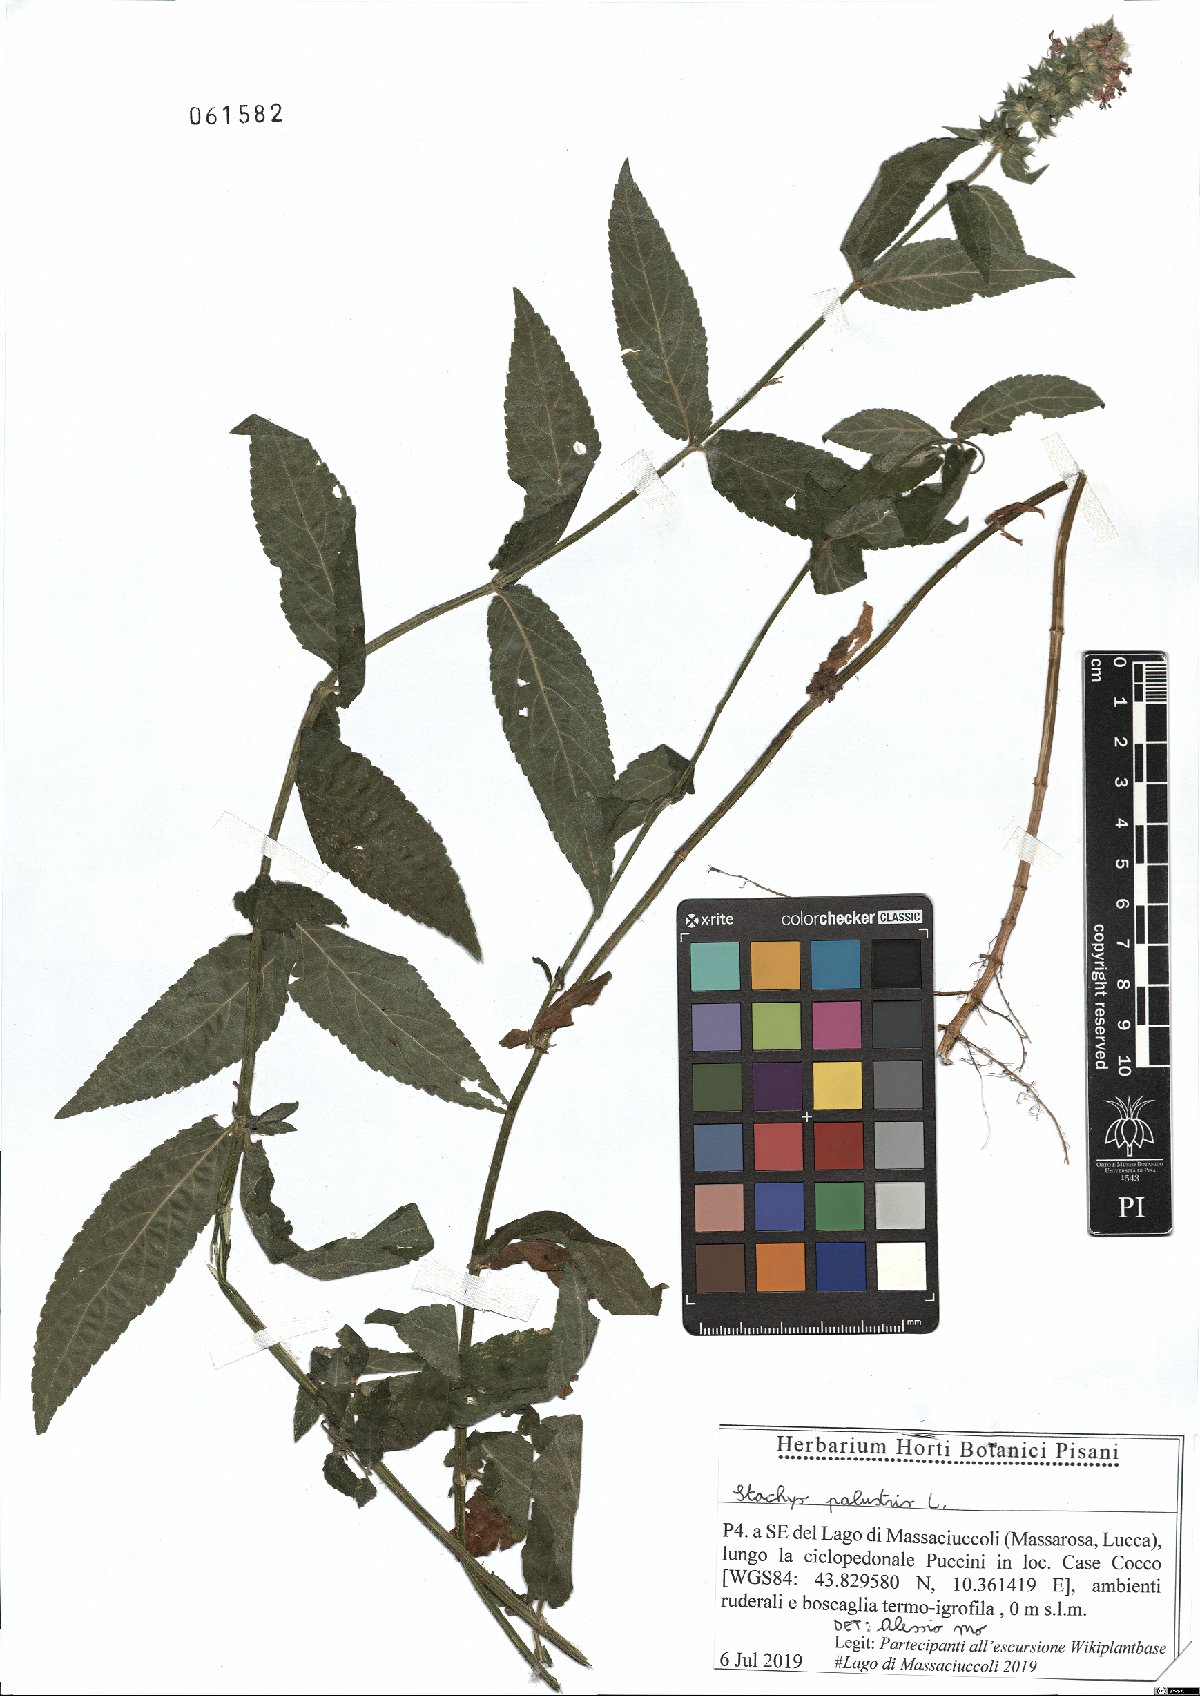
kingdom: Plantae
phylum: Tracheophyta
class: Magnoliopsida
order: Lamiales
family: Lamiaceae
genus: Stachys
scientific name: Stachys palustris
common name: Marsh woundwort
